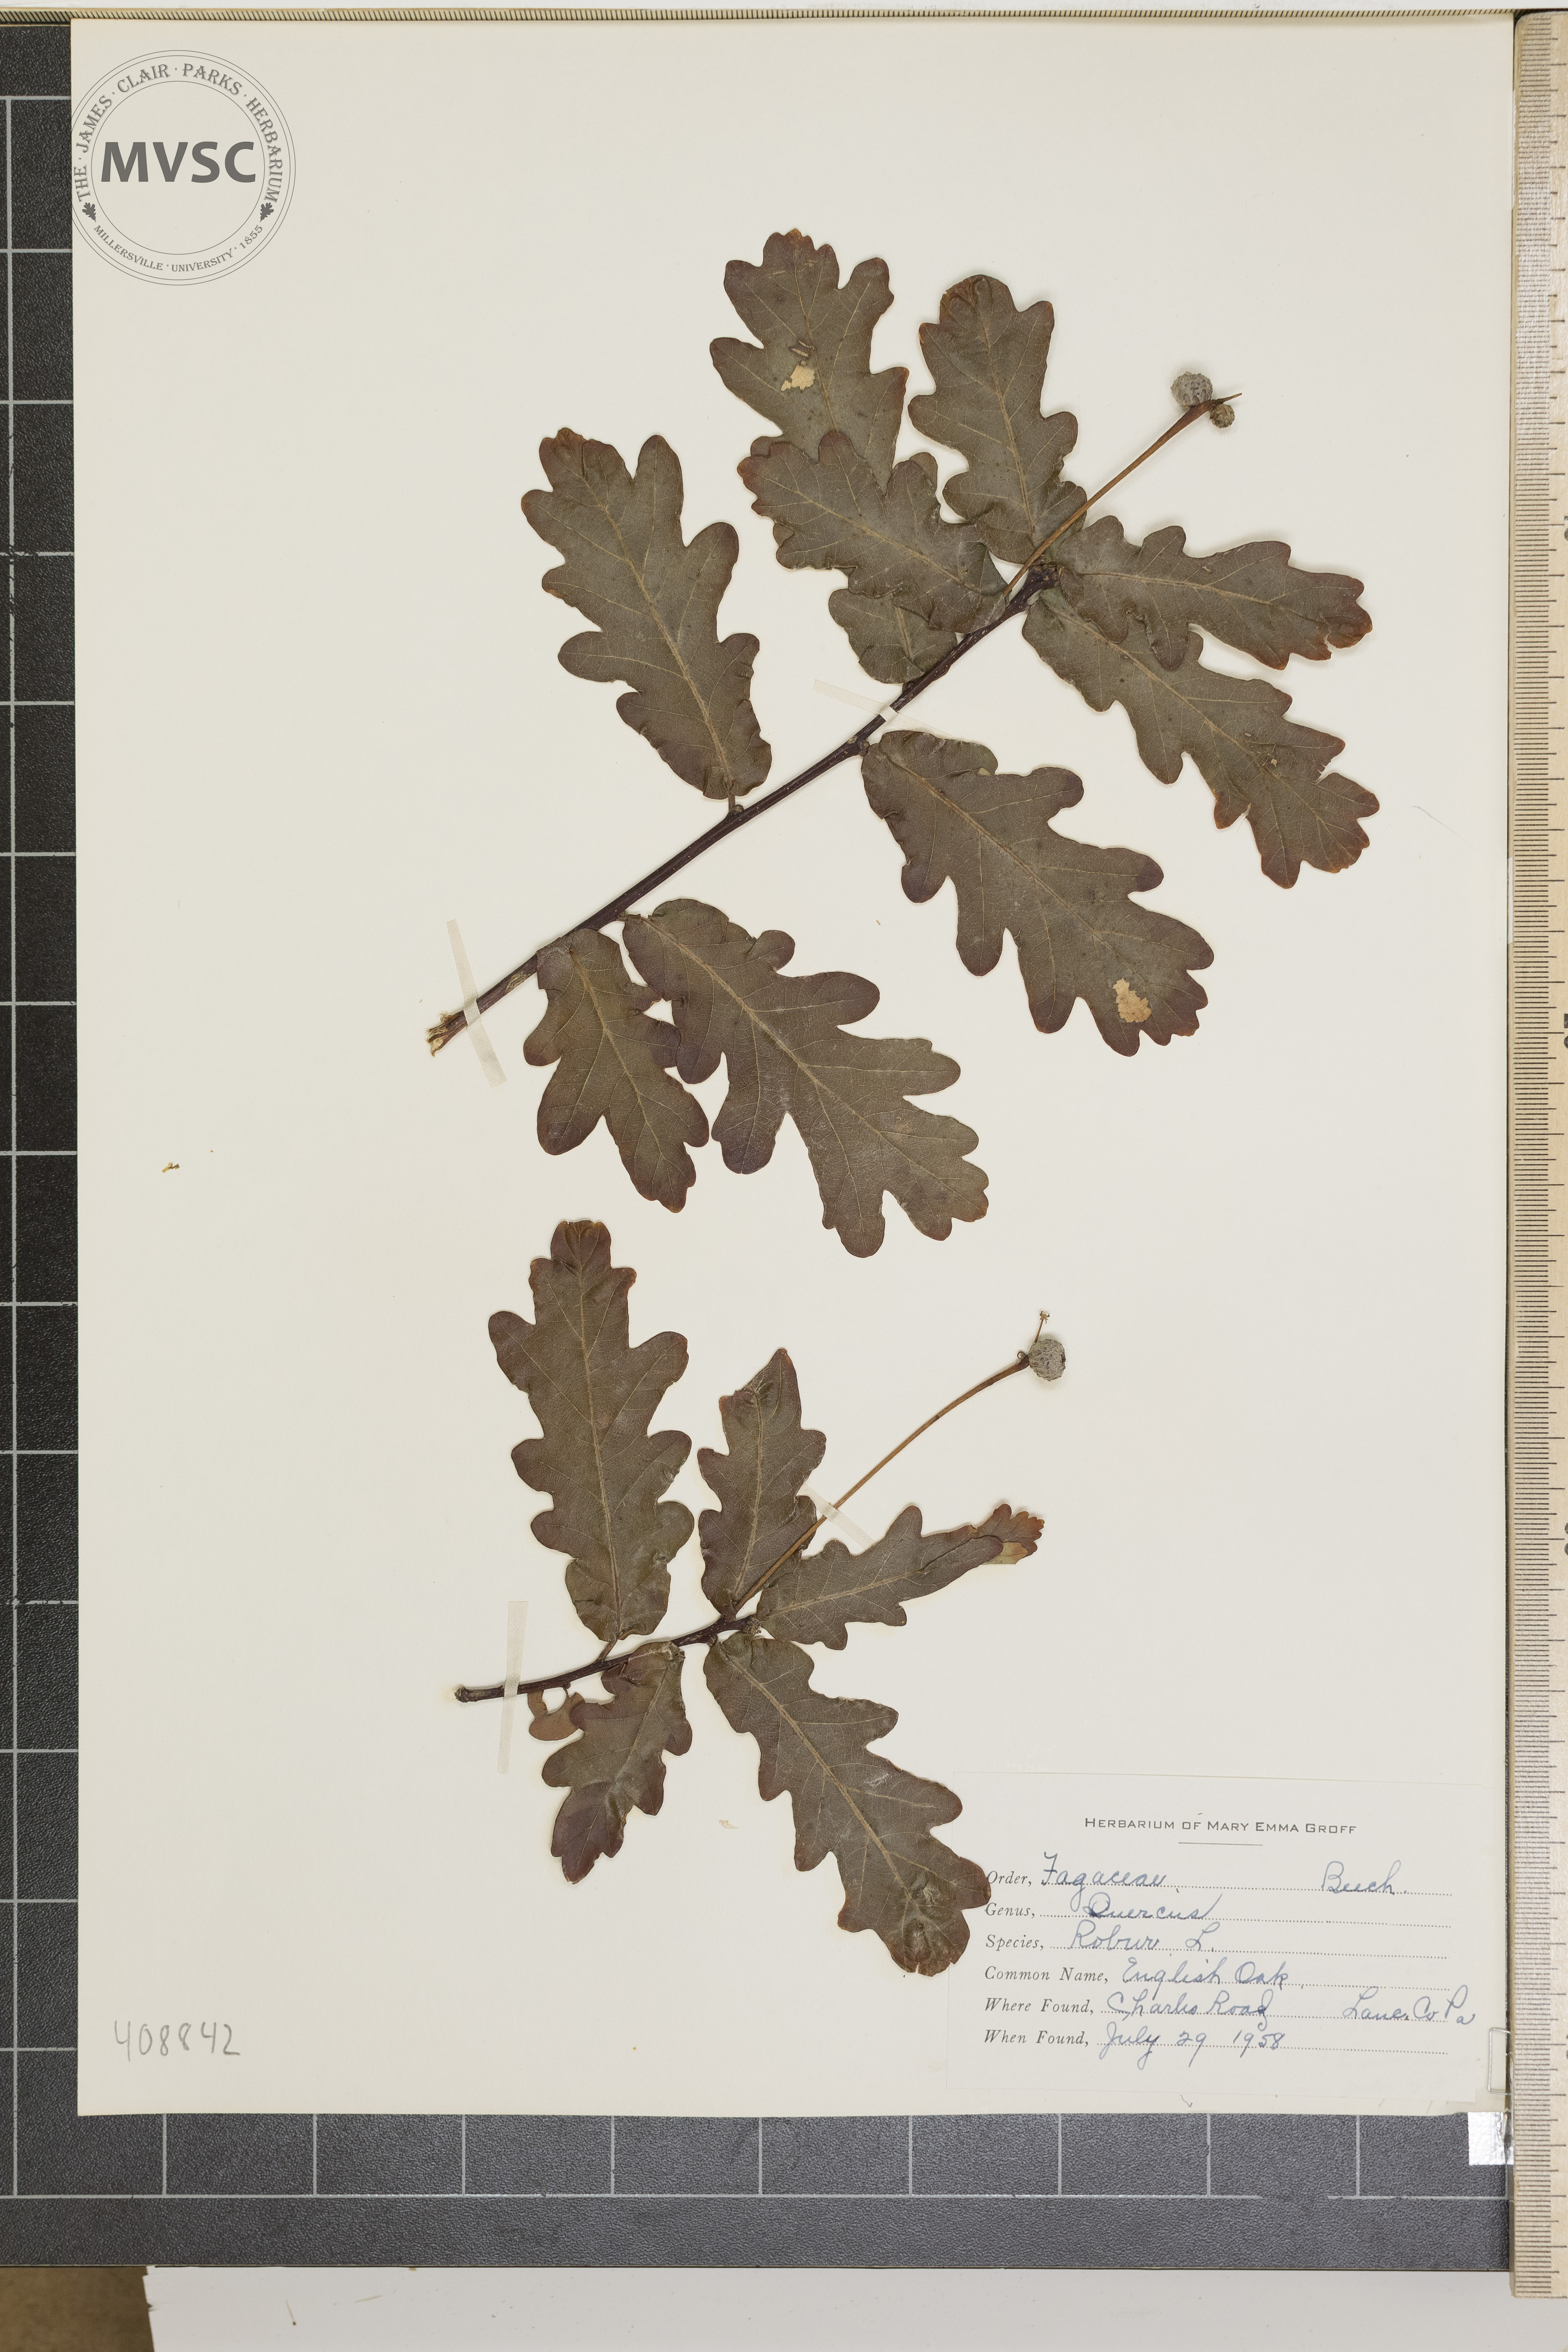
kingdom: Plantae
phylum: Tracheophyta
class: Magnoliopsida
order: Fagales
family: Fagaceae
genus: Quercus
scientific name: Quercus robur
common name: Pedunculate oak
